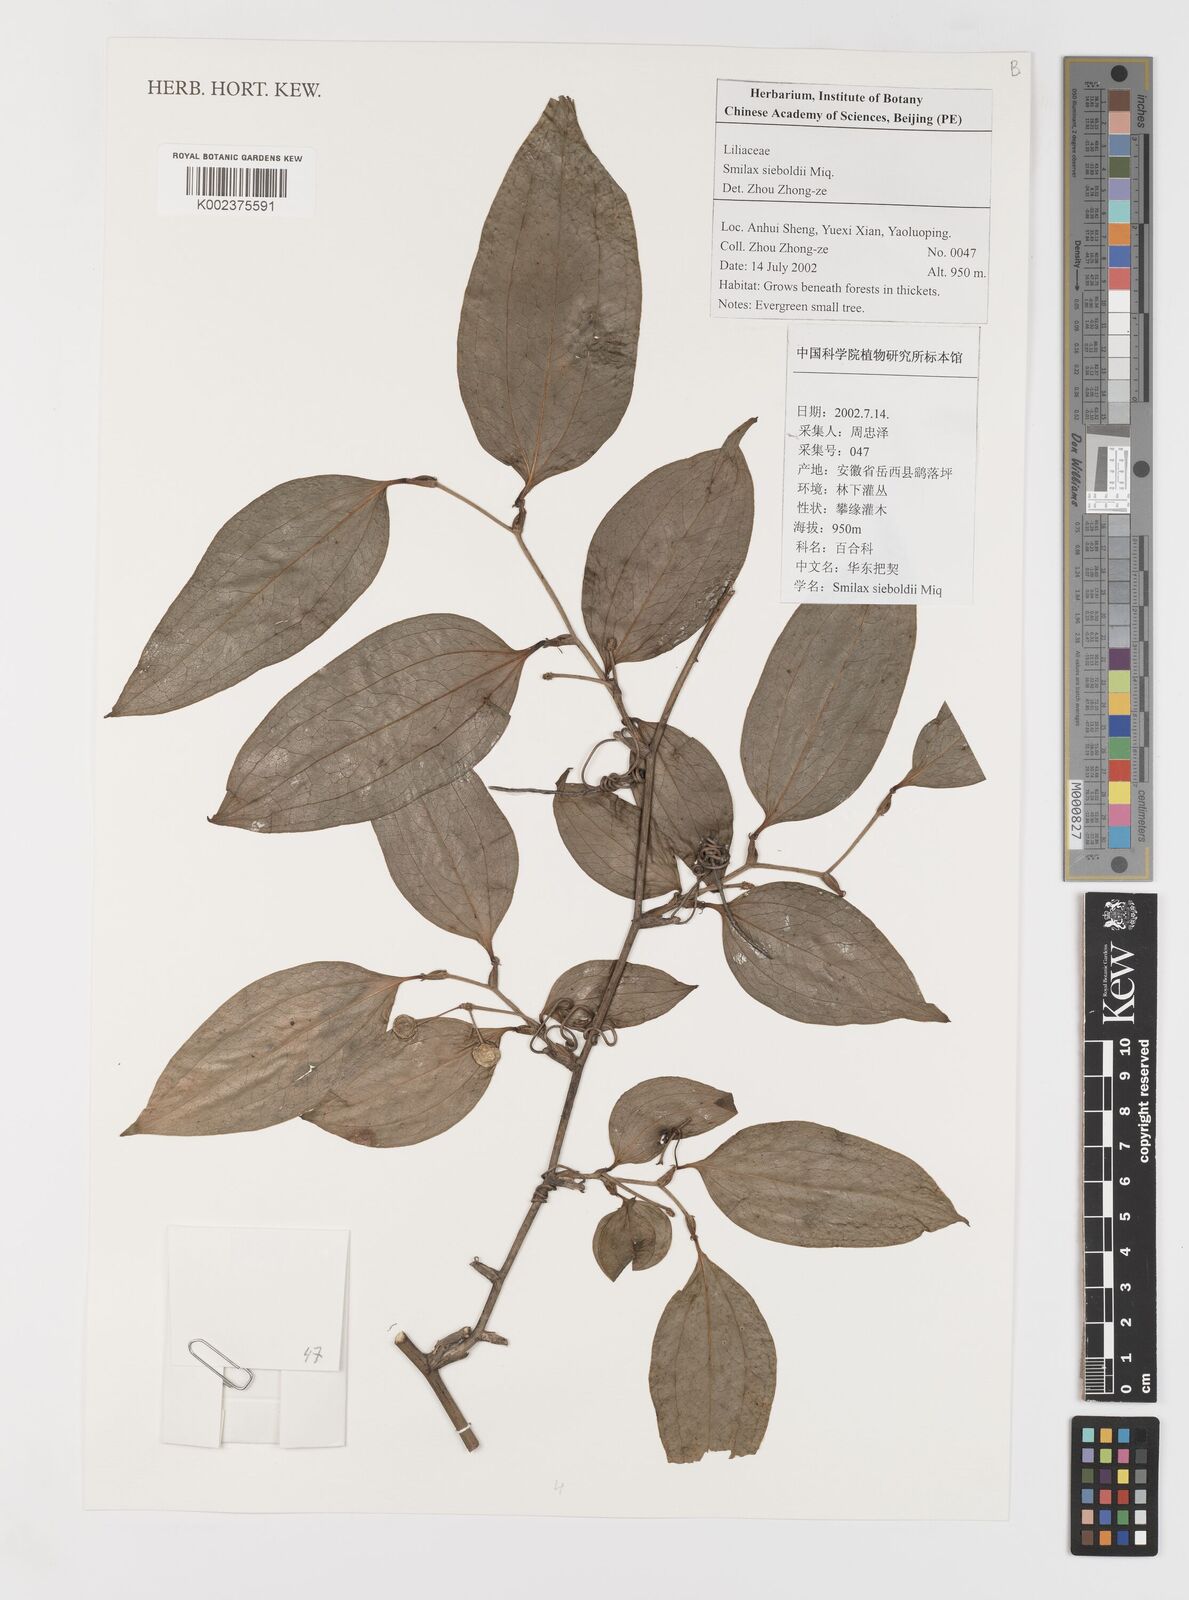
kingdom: Plantae
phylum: Tracheophyta
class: Liliopsida
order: Liliales
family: Smilacaceae
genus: Smilax
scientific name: Smilax sieboldii
